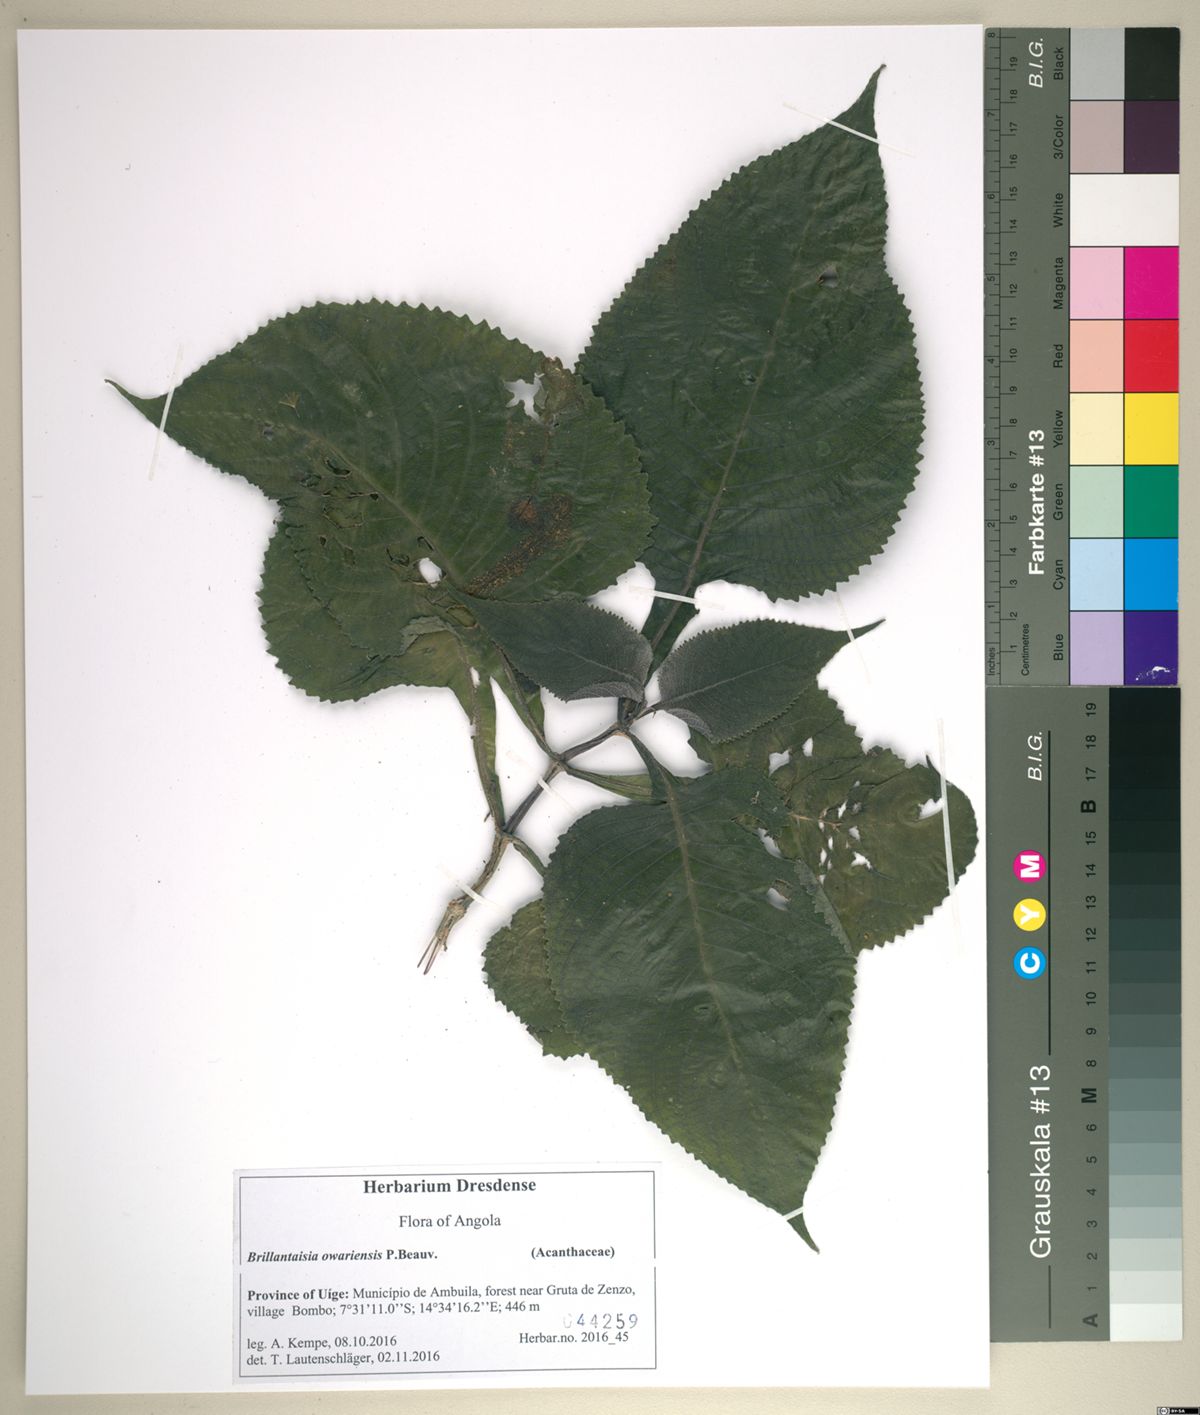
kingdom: Plantae
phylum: Tracheophyta
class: Magnoliopsida
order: Lamiales
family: Acanthaceae
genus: Brillantaisia
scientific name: Brillantaisia owariensis
